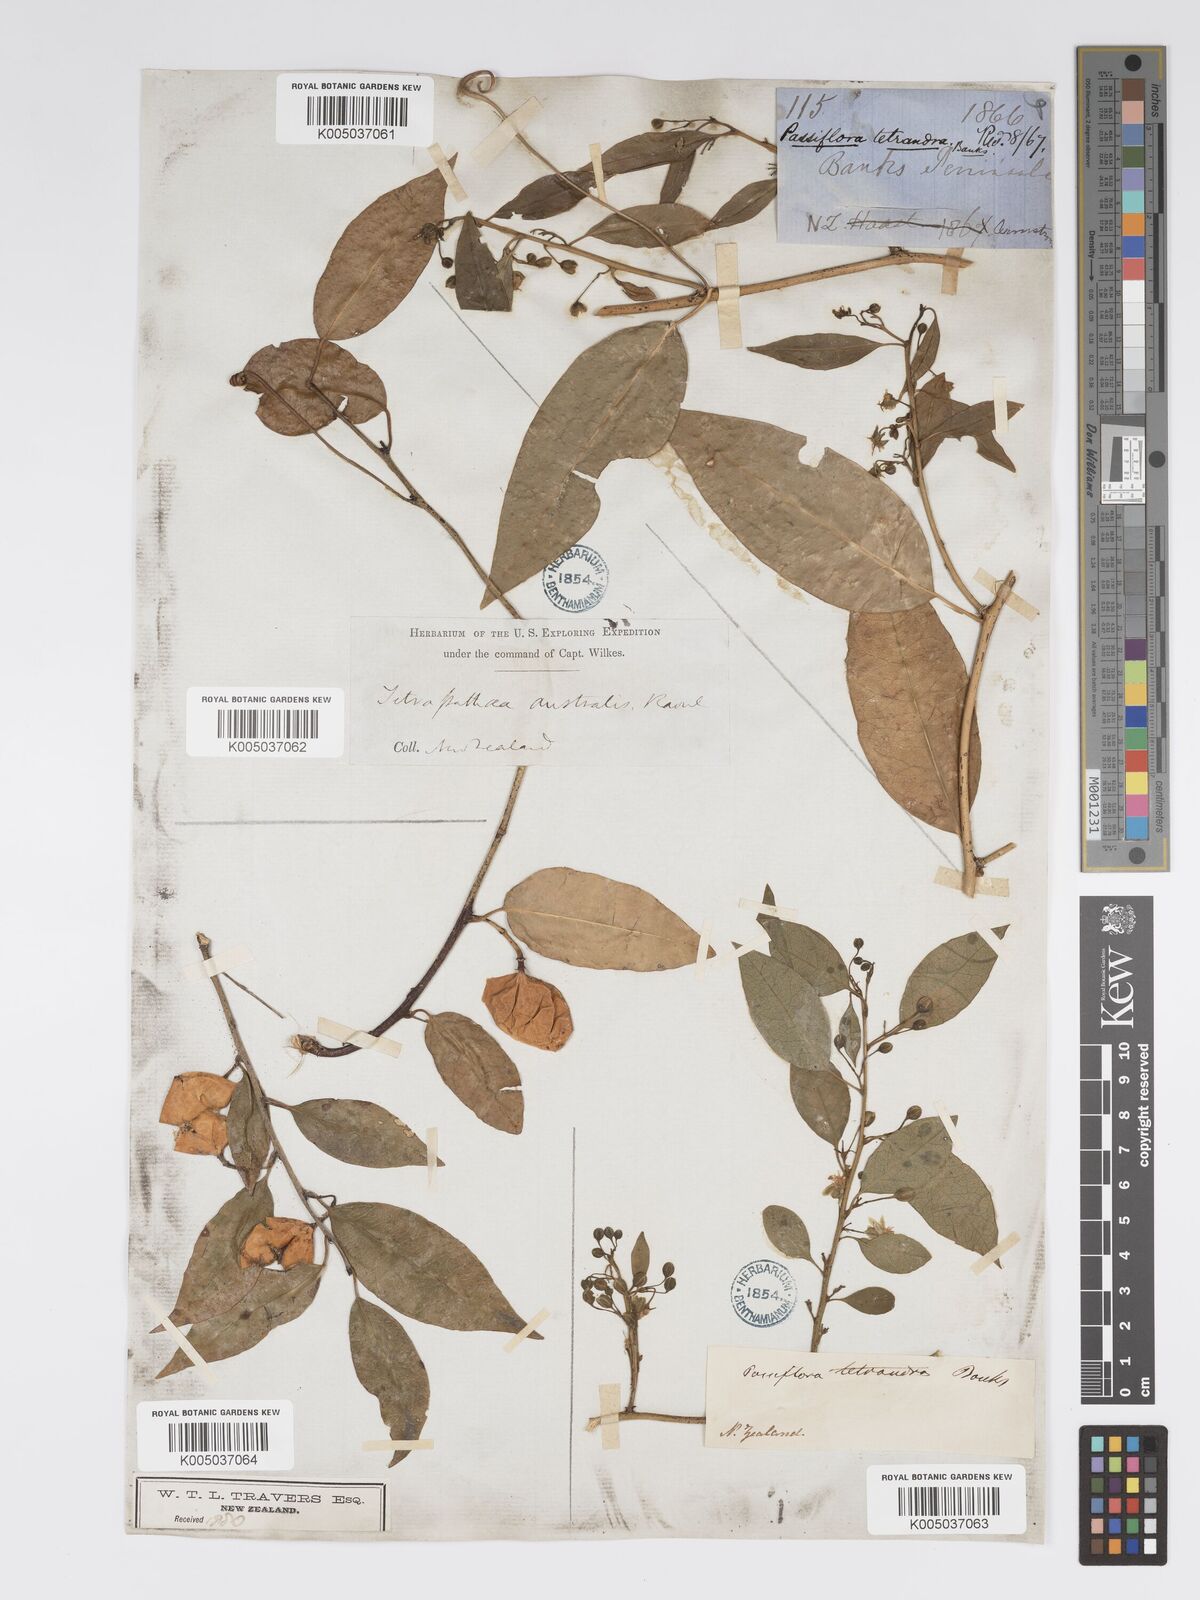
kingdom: Plantae
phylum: Tracheophyta
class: Magnoliopsida
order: Malpighiales
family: Passifloraceae
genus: Passiflora
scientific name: Passiflora tetrandra
